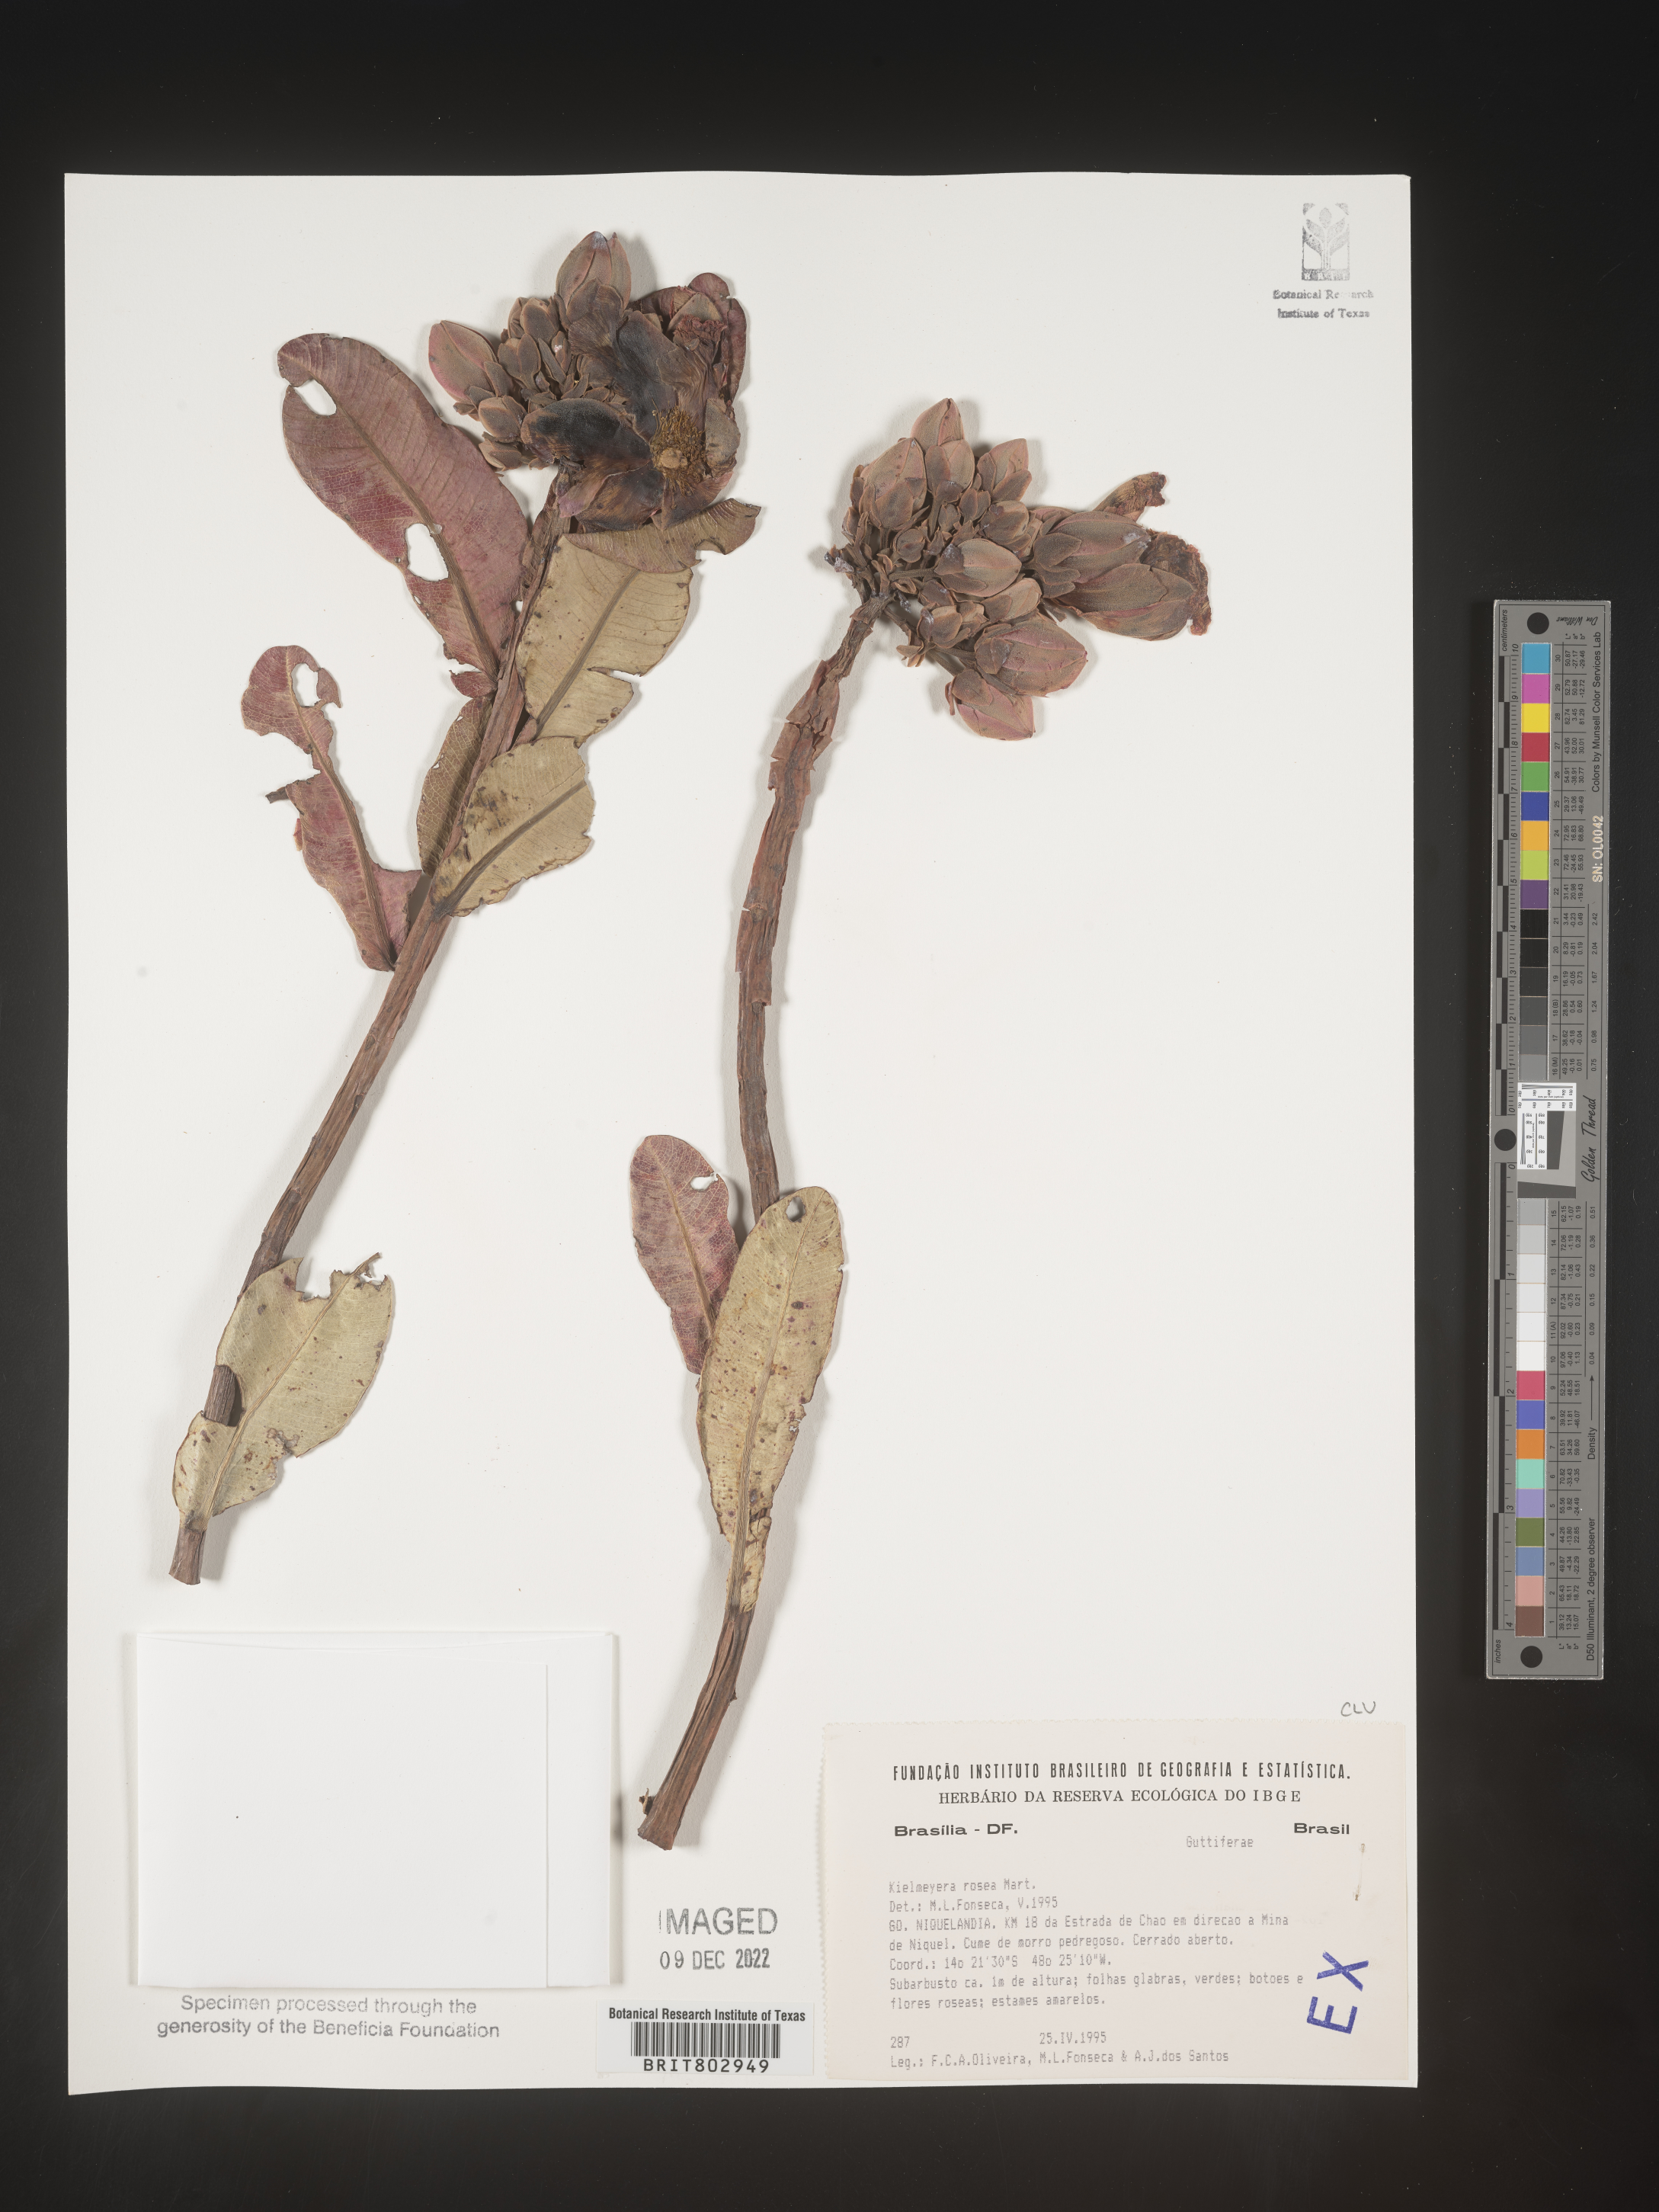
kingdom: Plantae
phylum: Tracheophyta
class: Magnoliopsida
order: Malpighiales
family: Calophyllaceae
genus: Kielmeyera
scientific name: Kielmeyera
